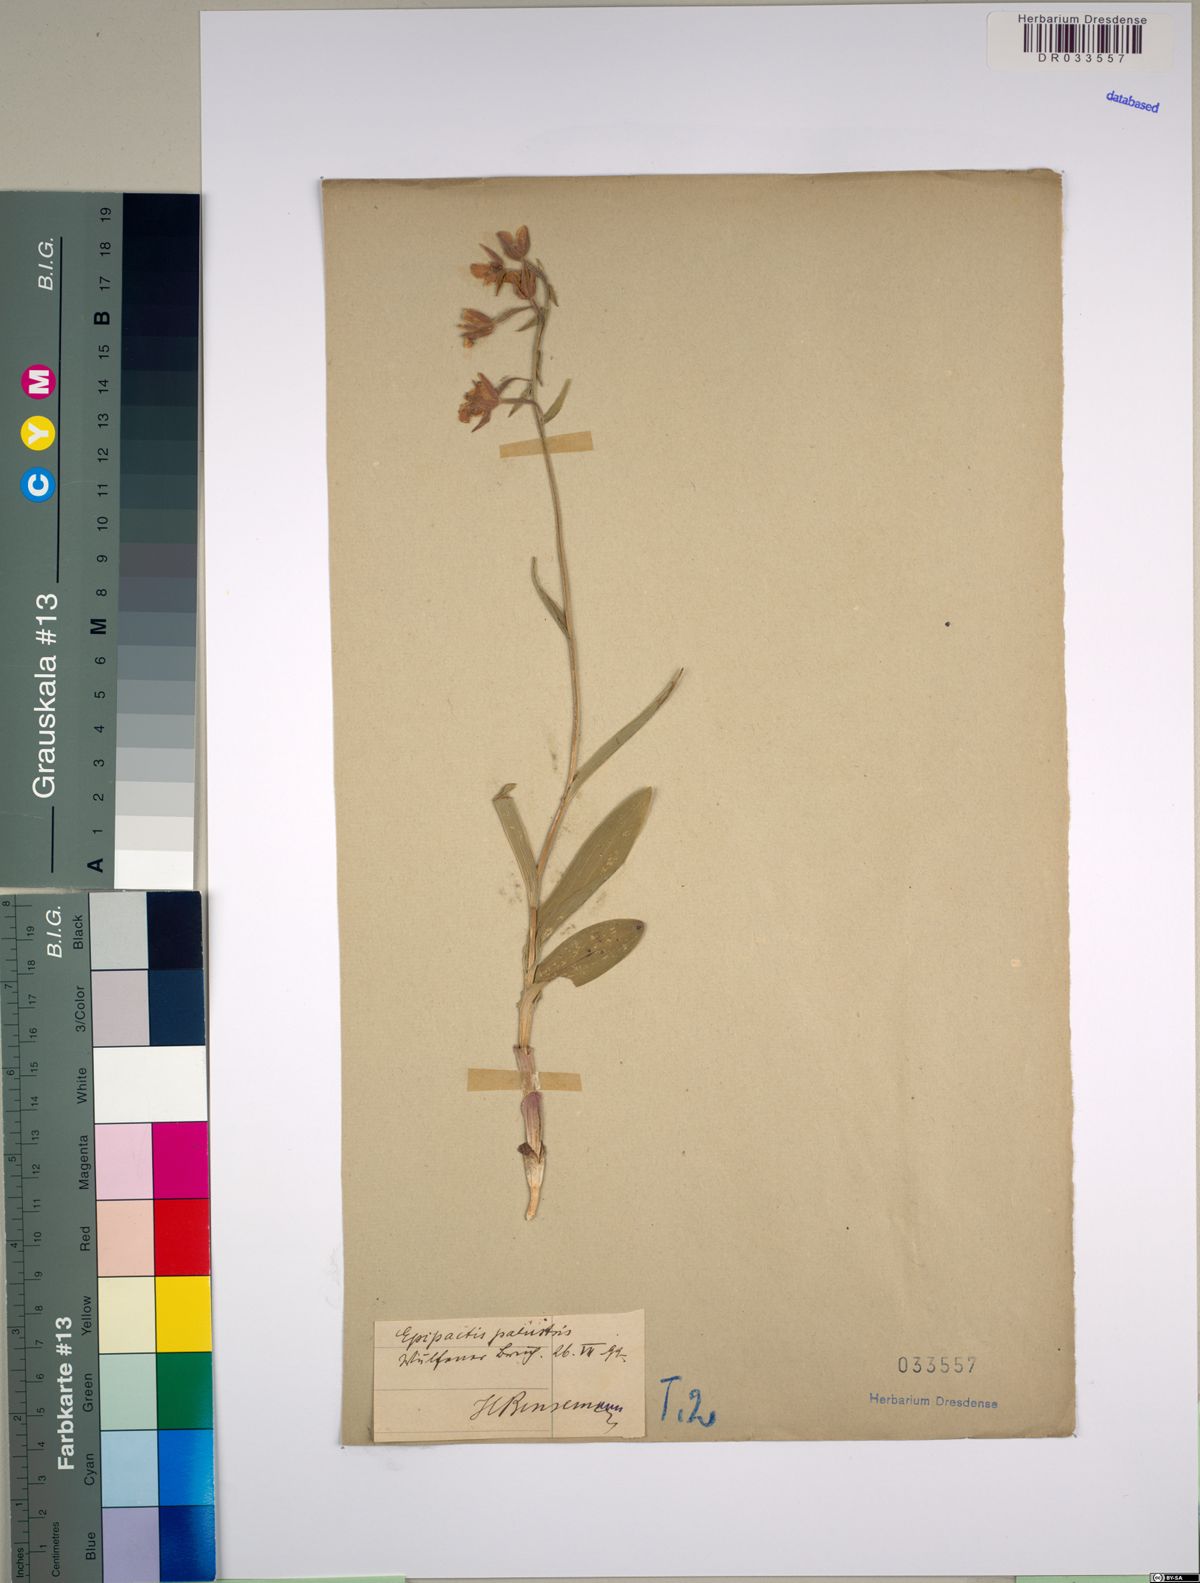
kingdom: Plantae
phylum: Tracheophyta
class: Liliopsida
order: Asparagales
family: Orchidaceae
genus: Epipactis
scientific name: Epipactis palustris
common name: Marsh helleborine
